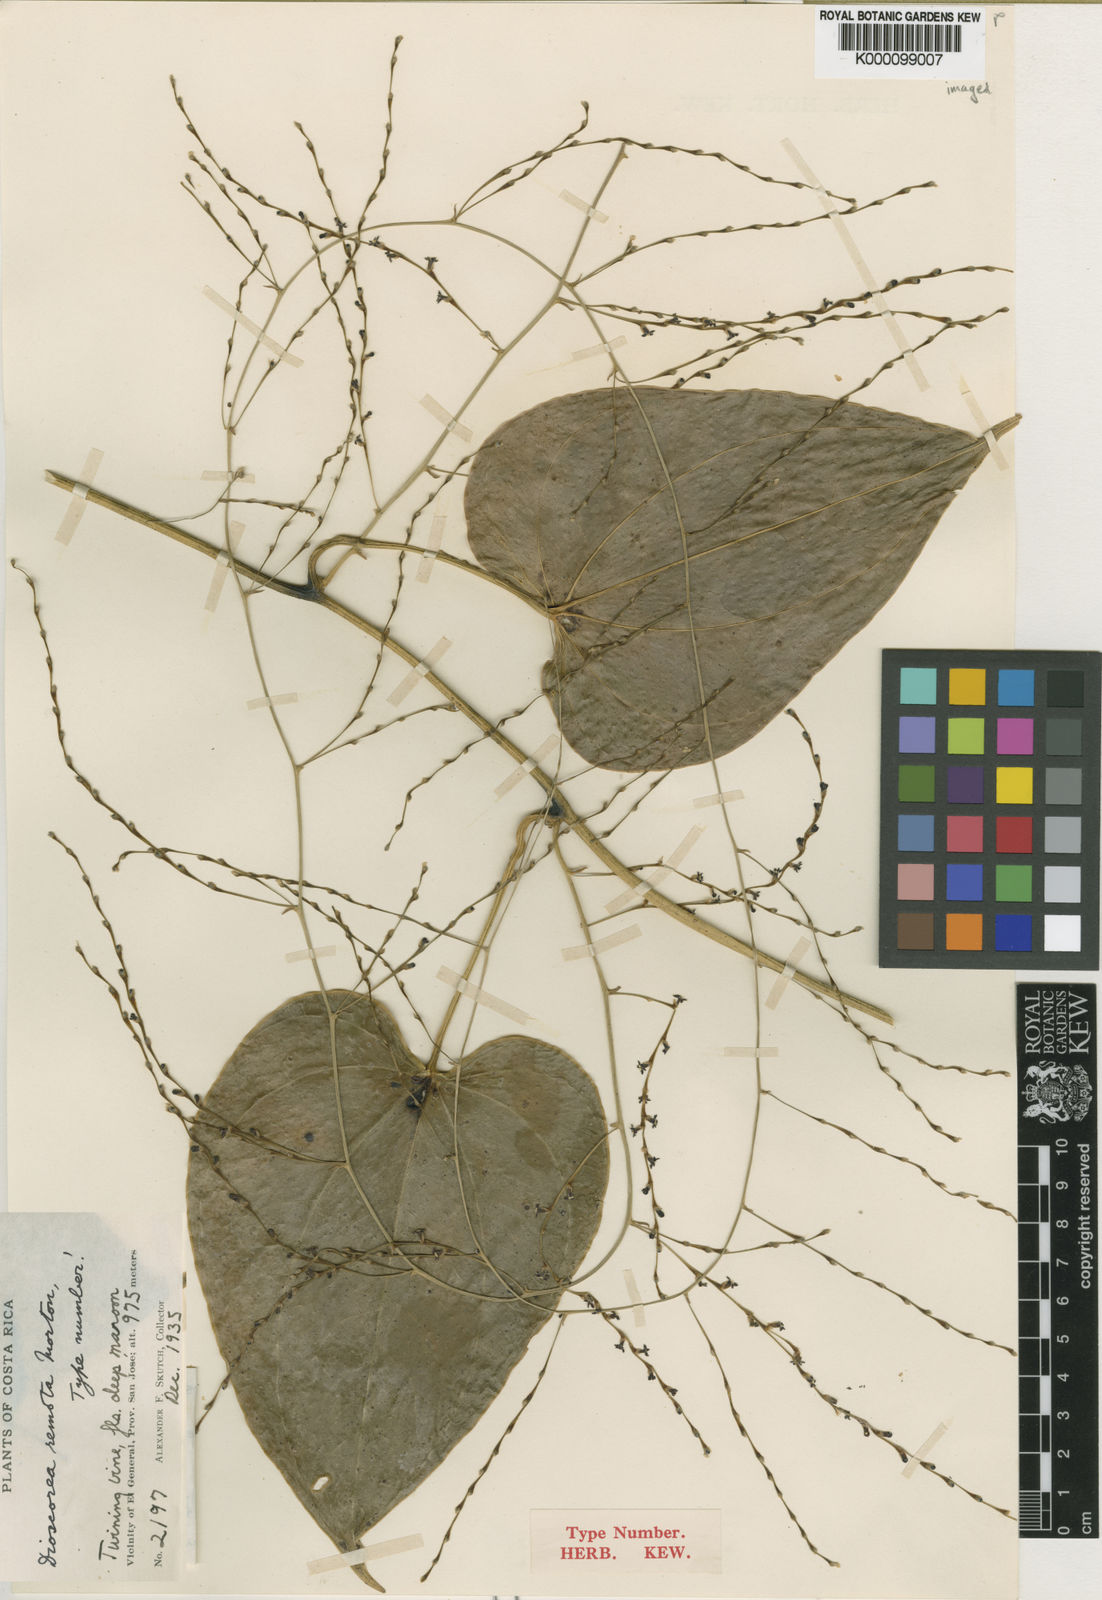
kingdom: Plantae
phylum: Tracheophyta
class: Liliopsida
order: Dioscoreales
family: Dioscoreaceae
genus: Dioscorea
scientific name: Dioscorea remota
